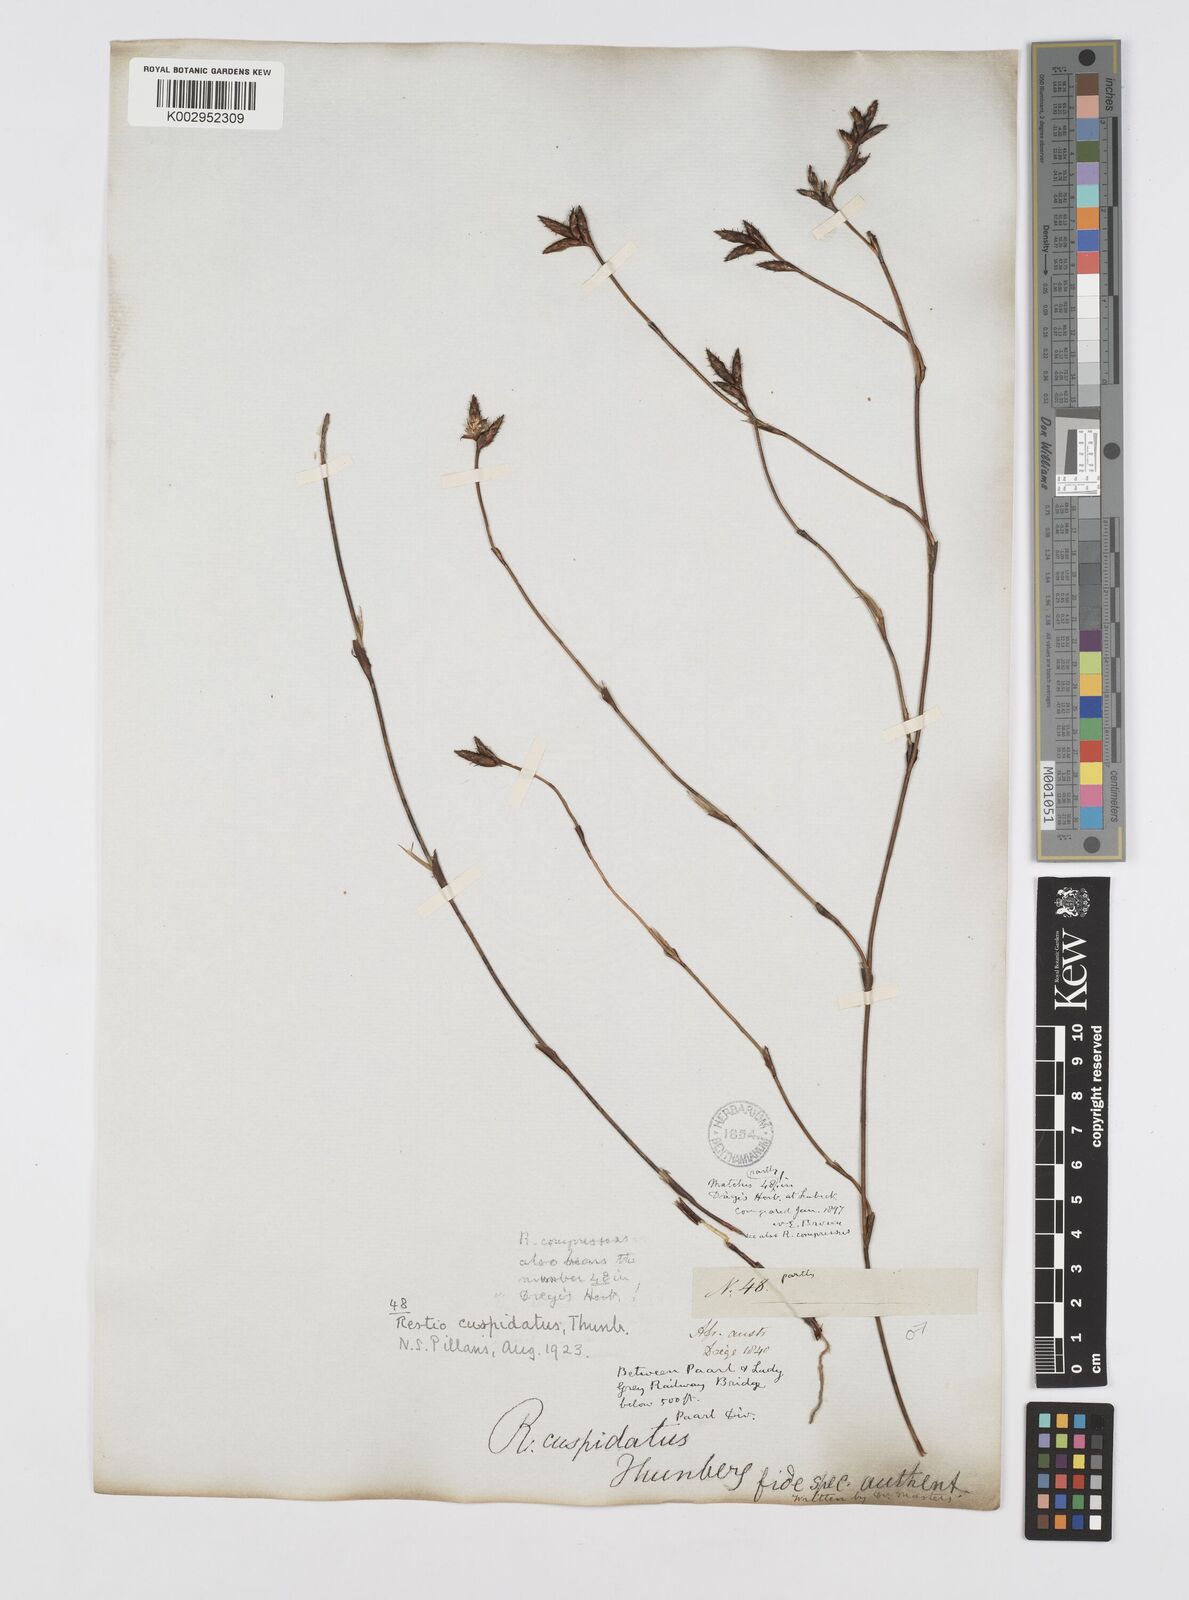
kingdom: Plantae
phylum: Tracheophyta
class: Liliopsida
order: Poales
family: Restionaceae
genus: Restio
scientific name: Restio capensis
